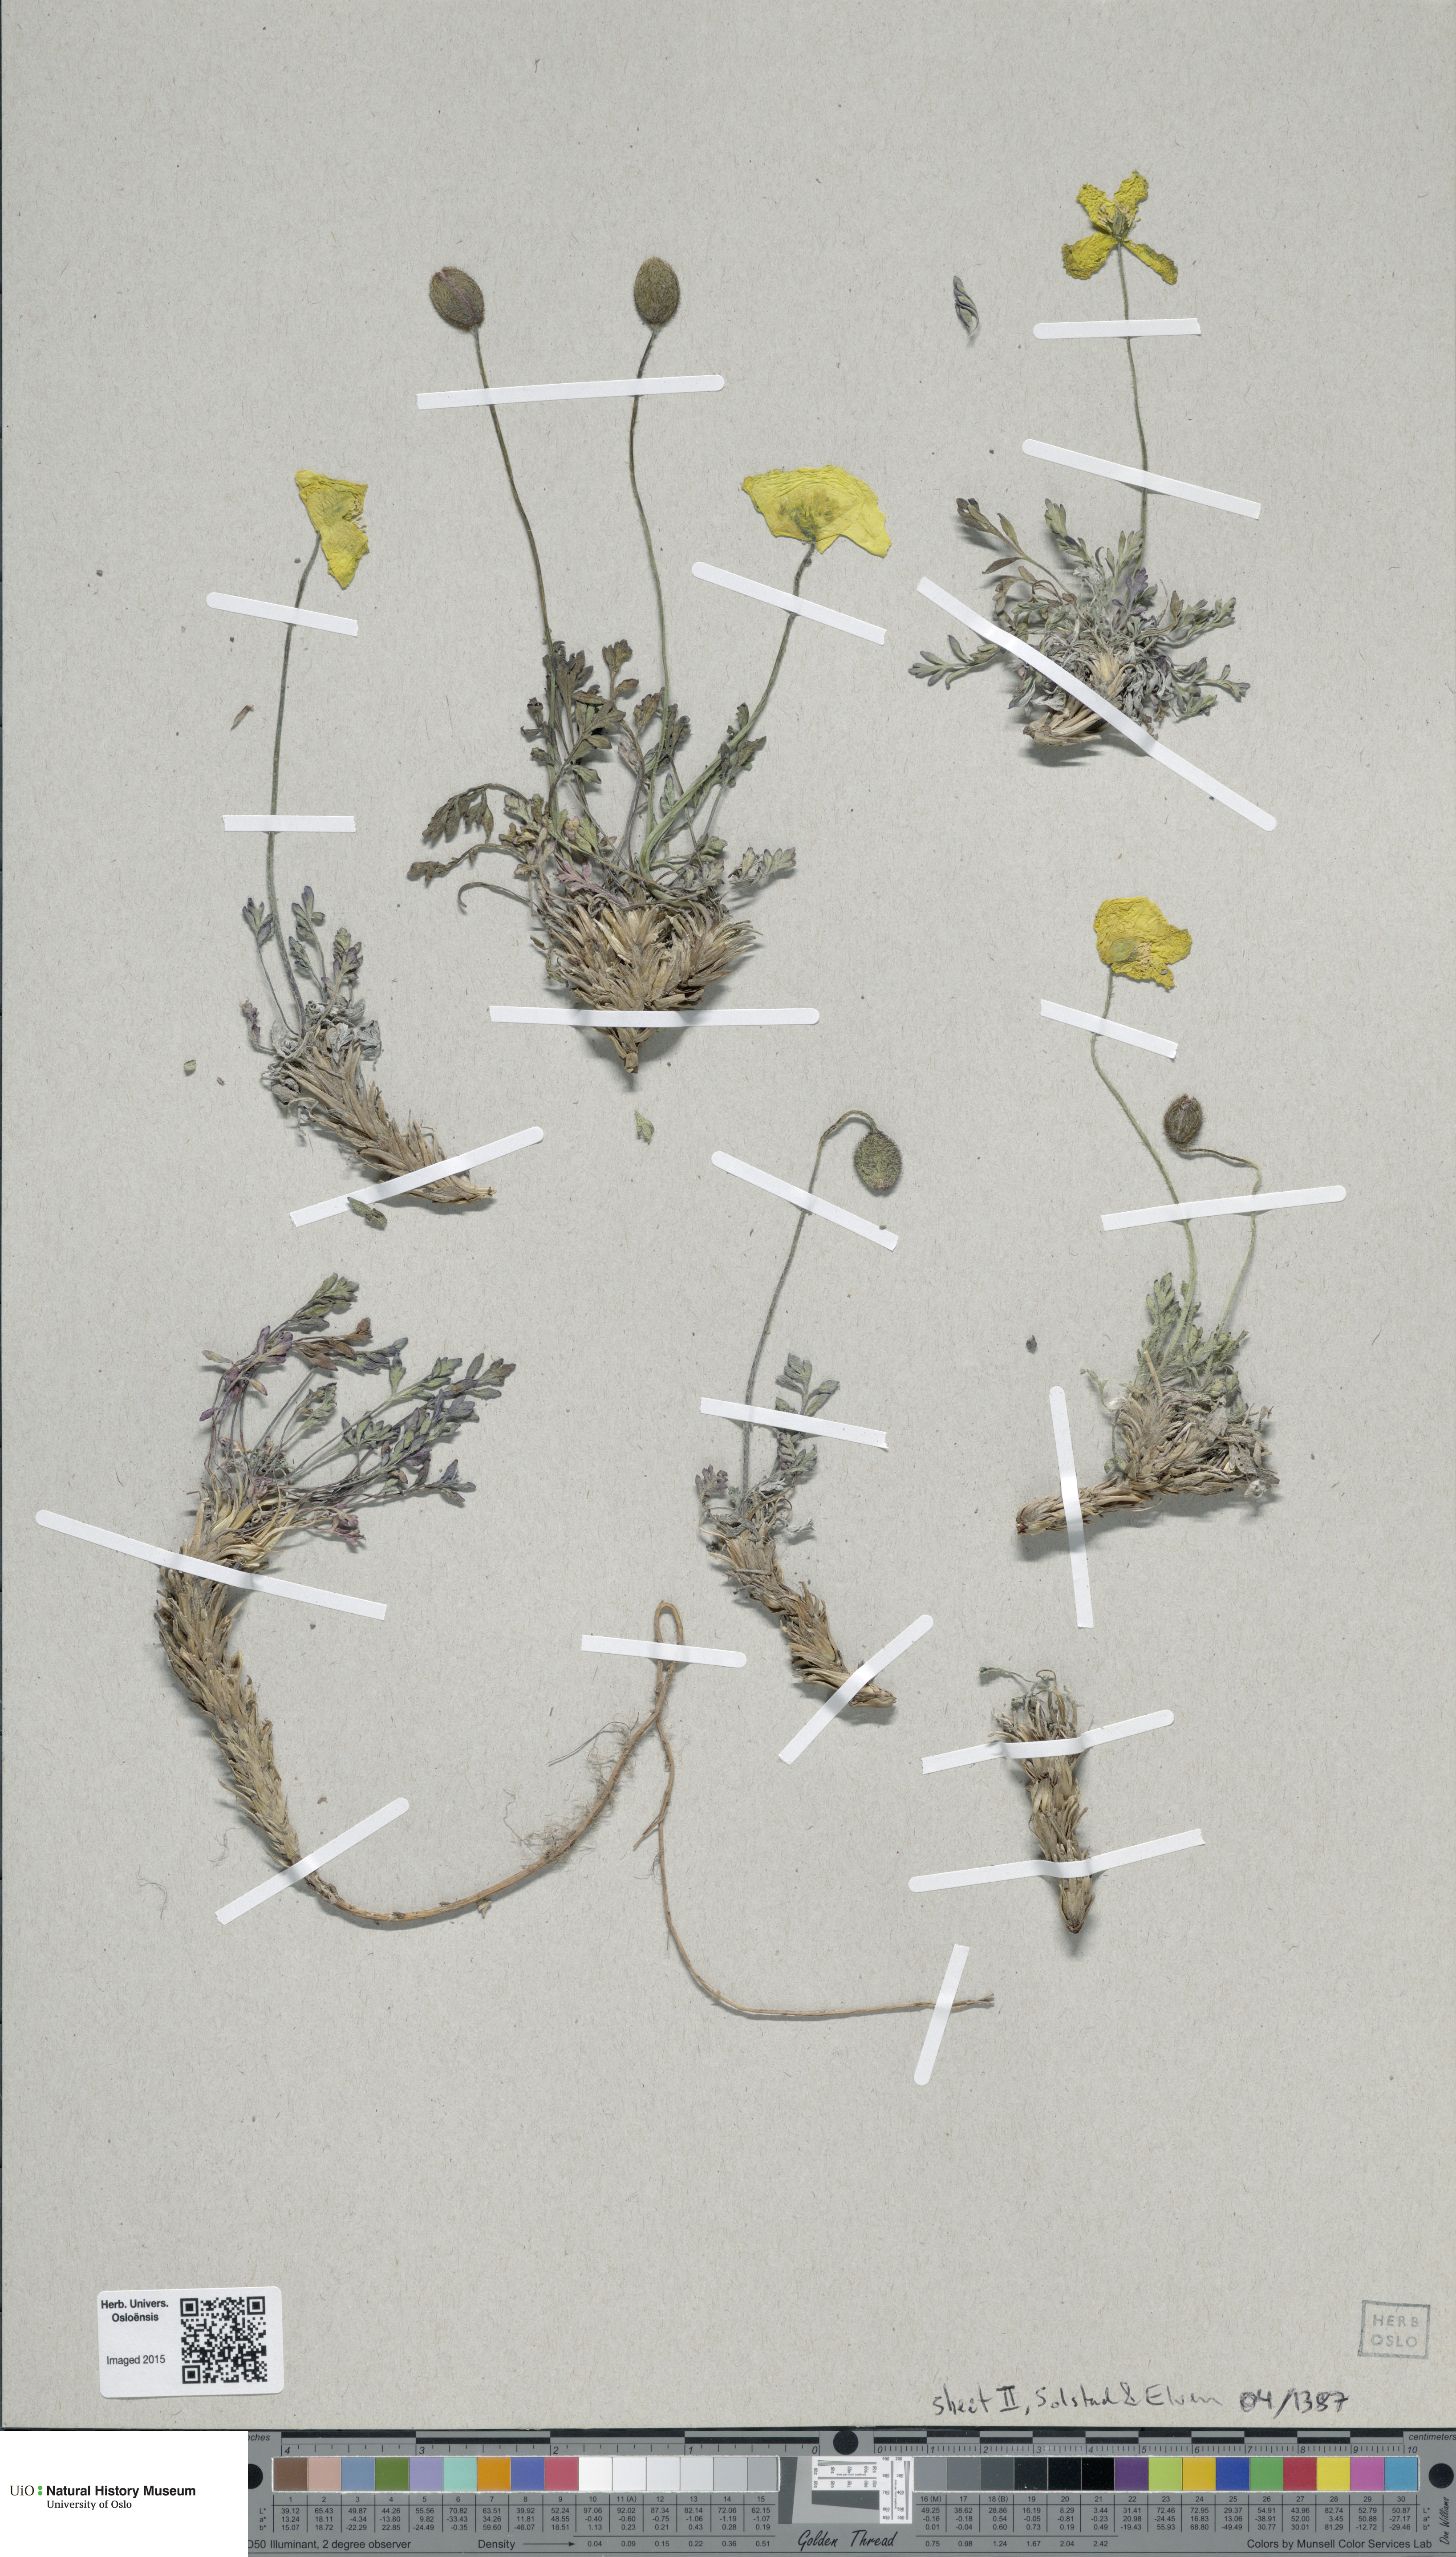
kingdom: Plantae
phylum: Tracheophyta
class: Magnoliopsida
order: Ranunculales
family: Papaveraceae
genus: Papaver
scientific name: Papaver lenaense
